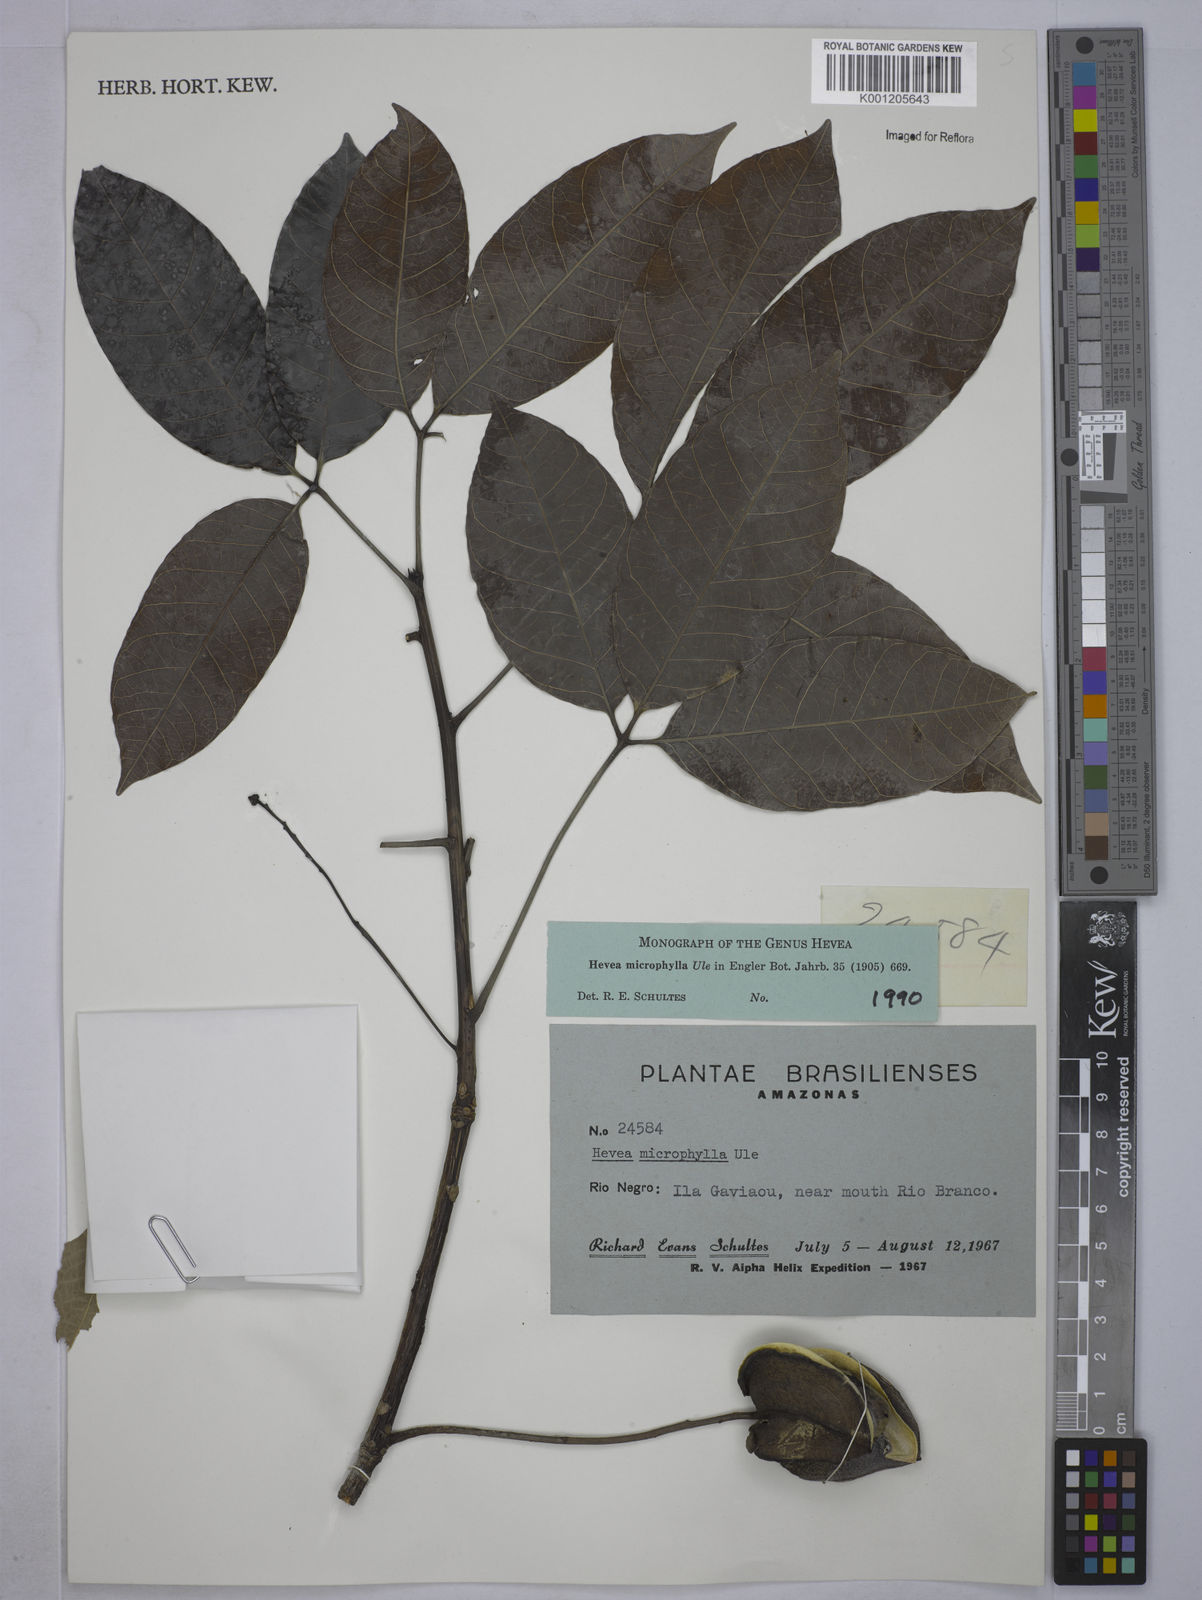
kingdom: Plantae
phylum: Tracheophyta
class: Magnoliopsida
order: Malpighiales
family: Euphorbiaceae
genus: Hevea
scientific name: Hevea microphylla
